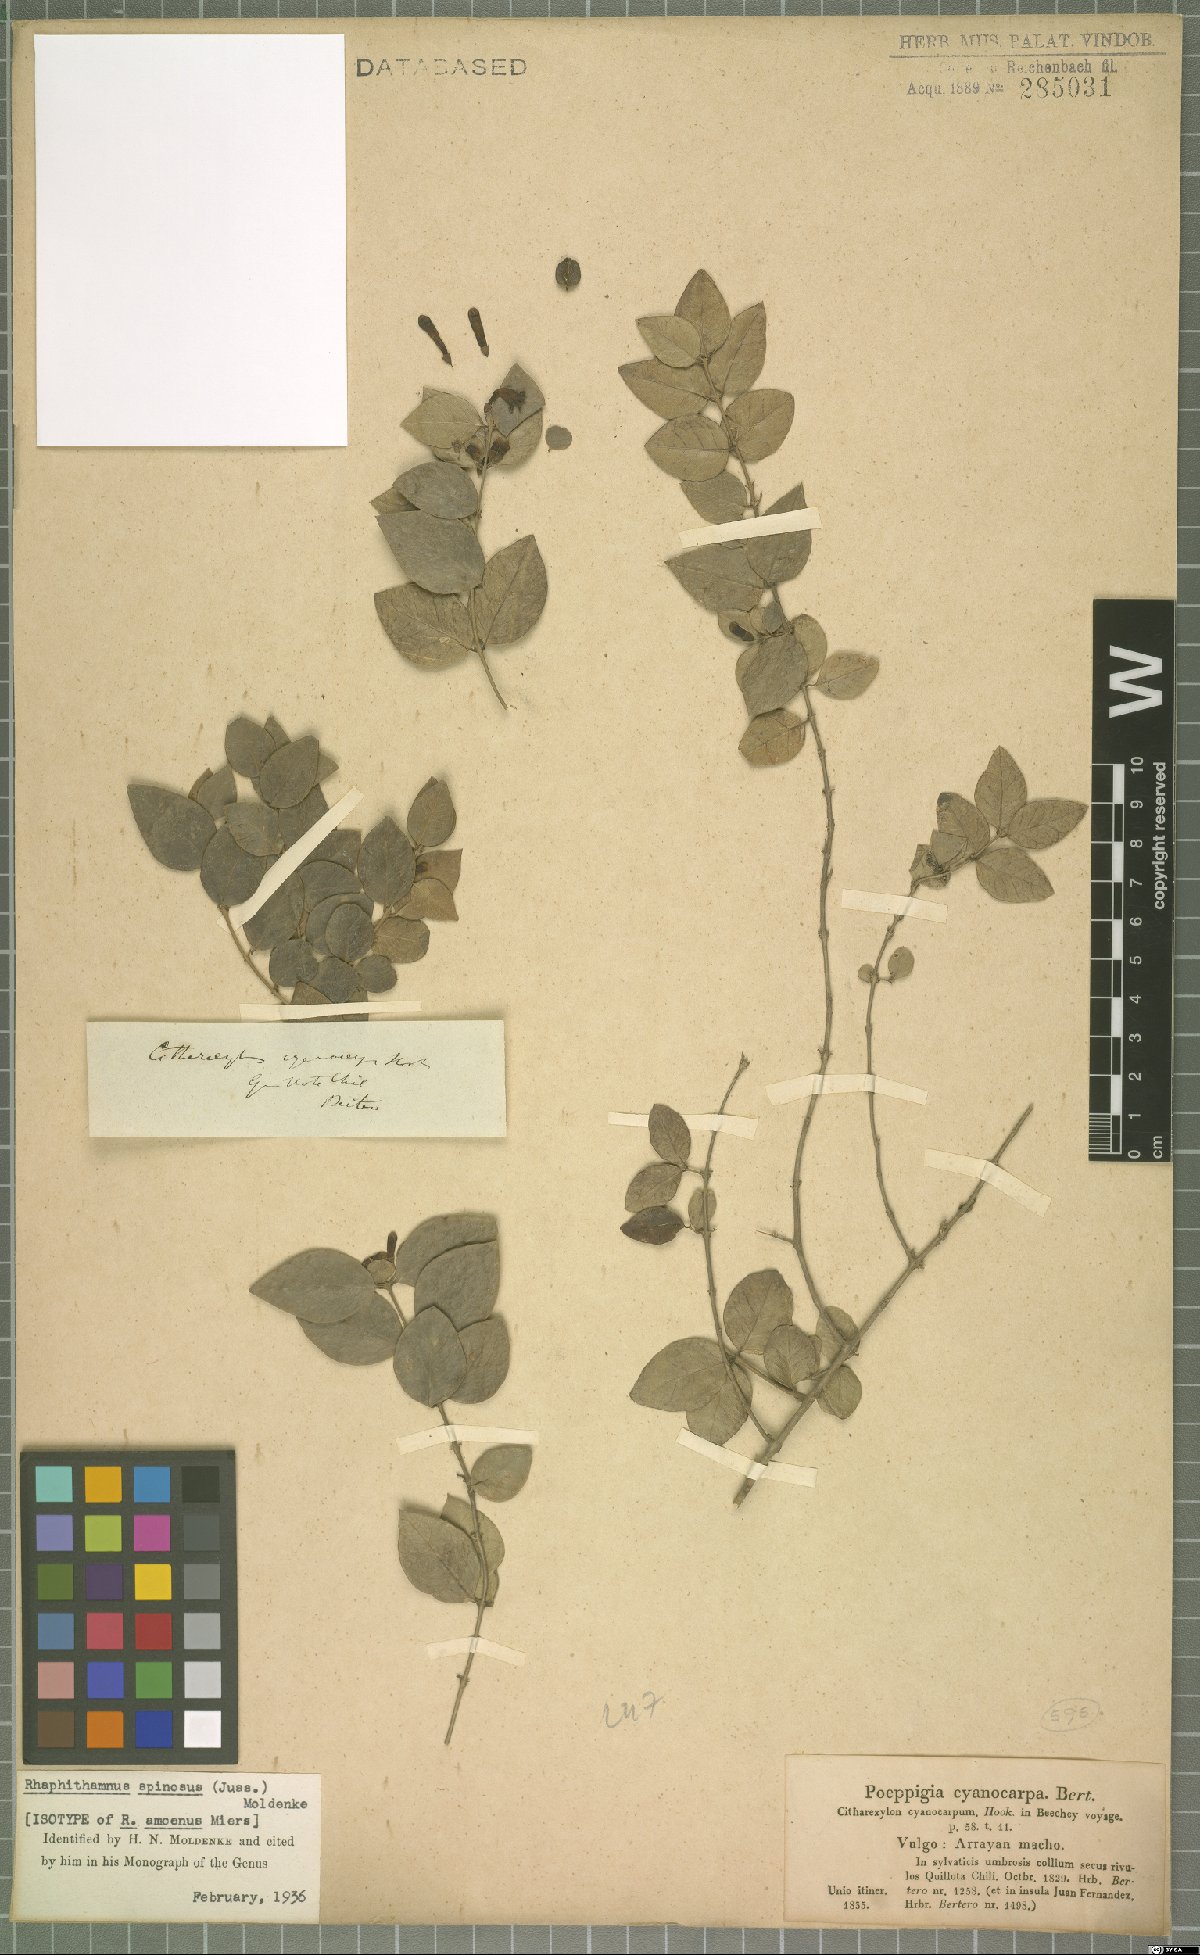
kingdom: Plantae
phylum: Tracheophyta
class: Magnoliopsida
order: Lamiales
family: Verbenaceae
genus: Rhaphithamnus
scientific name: Rhaphithamnus spinosus
